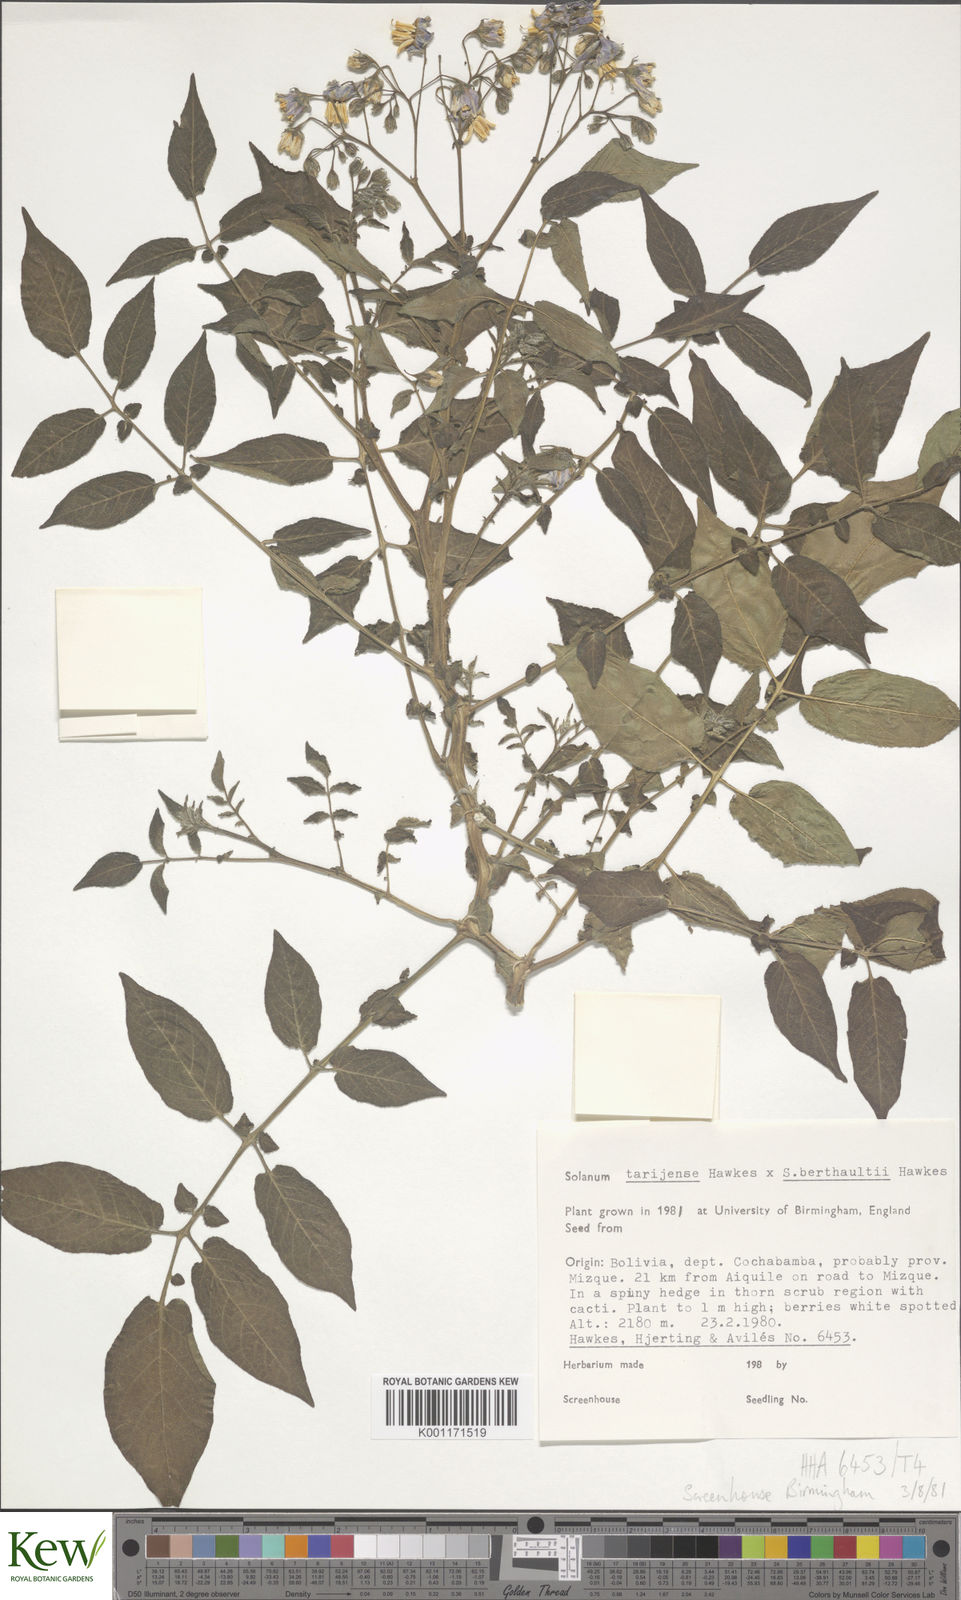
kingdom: Plantae
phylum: Tracheophyta
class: Magnoliopsida
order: Solanales
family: Solanaceae
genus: Solanum
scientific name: Solanum tarijense
